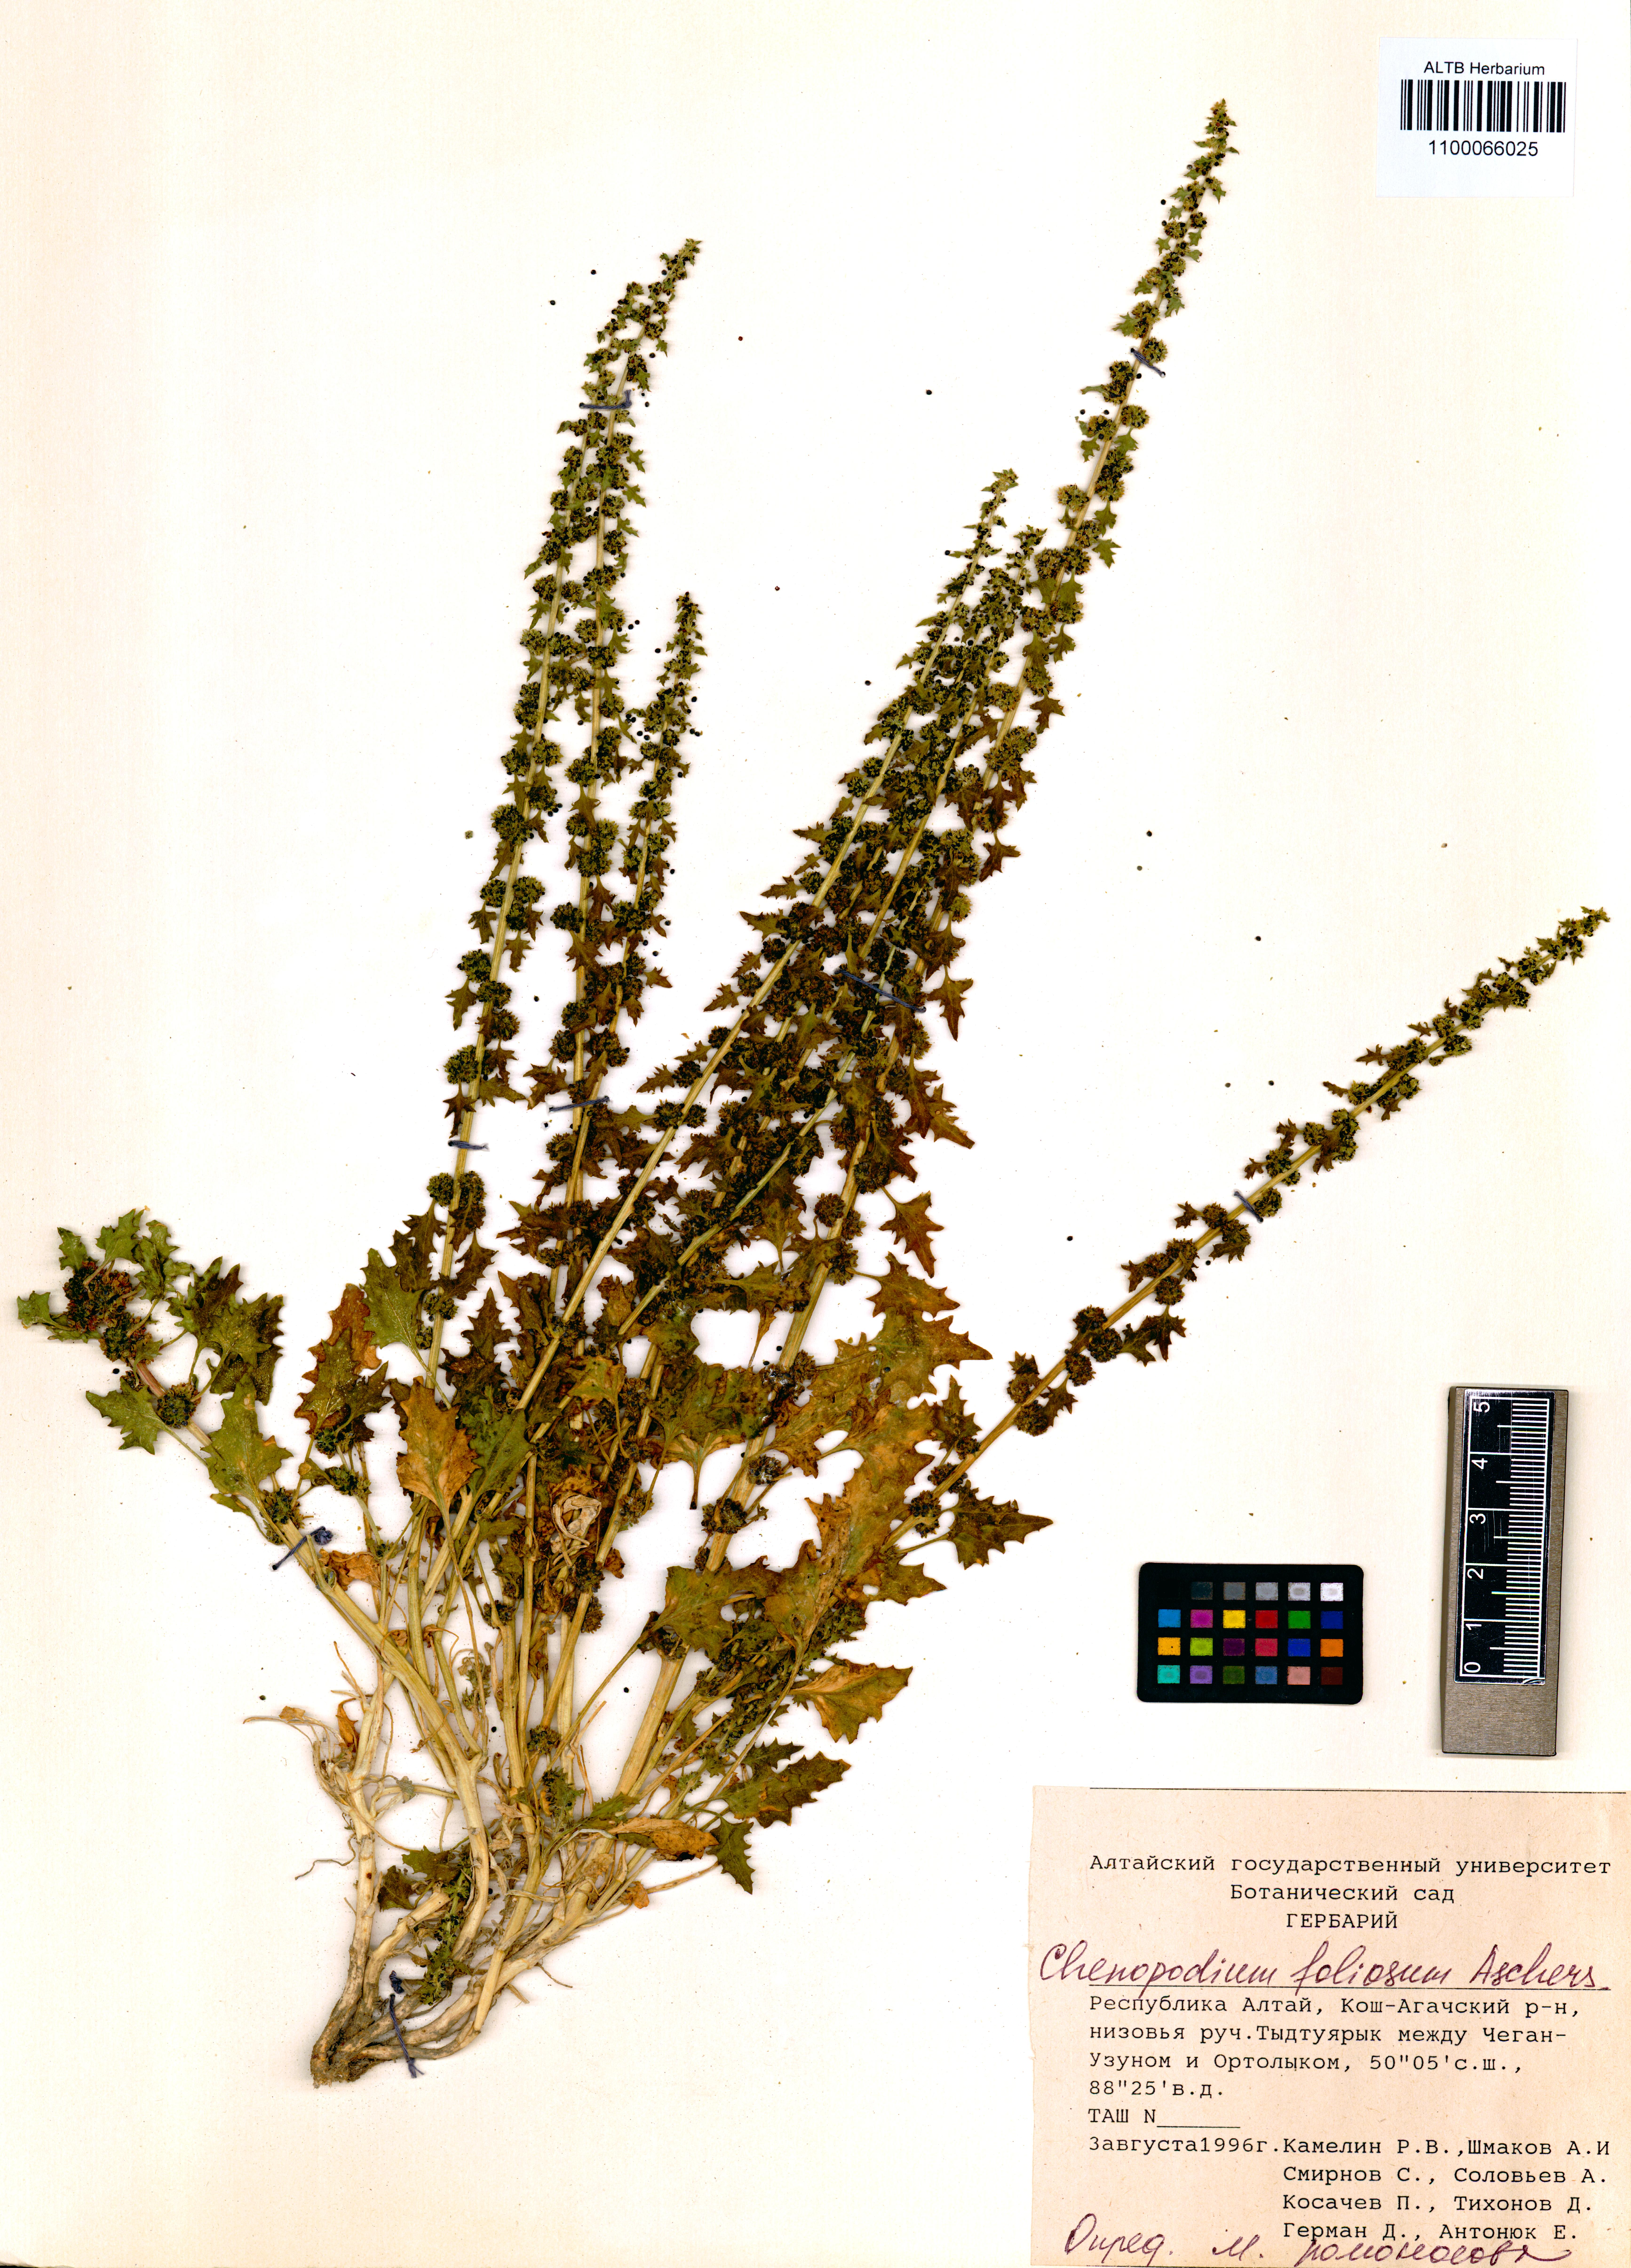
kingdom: Plantae
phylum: Tracheophyta
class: Magnoliopsida
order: Caryophyllales
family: Amaranthaceae
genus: Blitum
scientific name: Blitum virgatum
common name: Strawberry goosefoot
